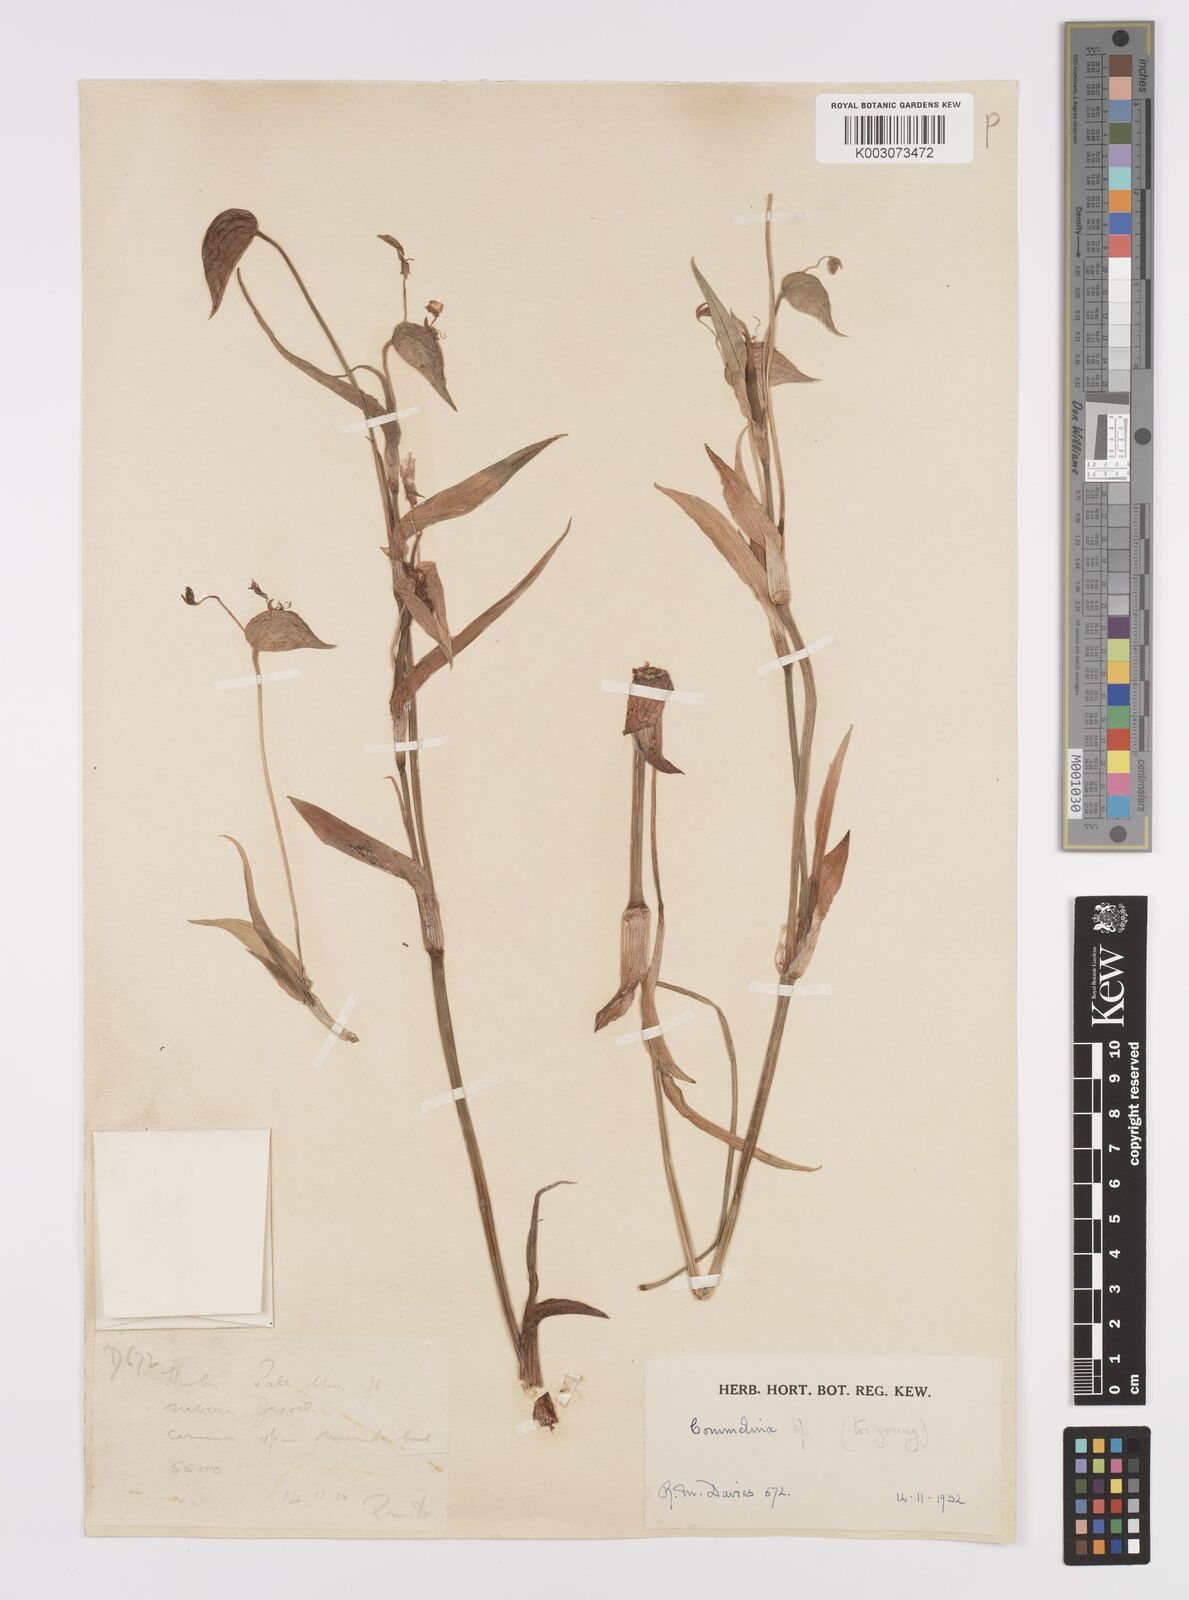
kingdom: Plantae
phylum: Tracheophyta
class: Liliopsida
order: Commelinales
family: Commelinaceae
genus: Commelina
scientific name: Commelina kituloensis
